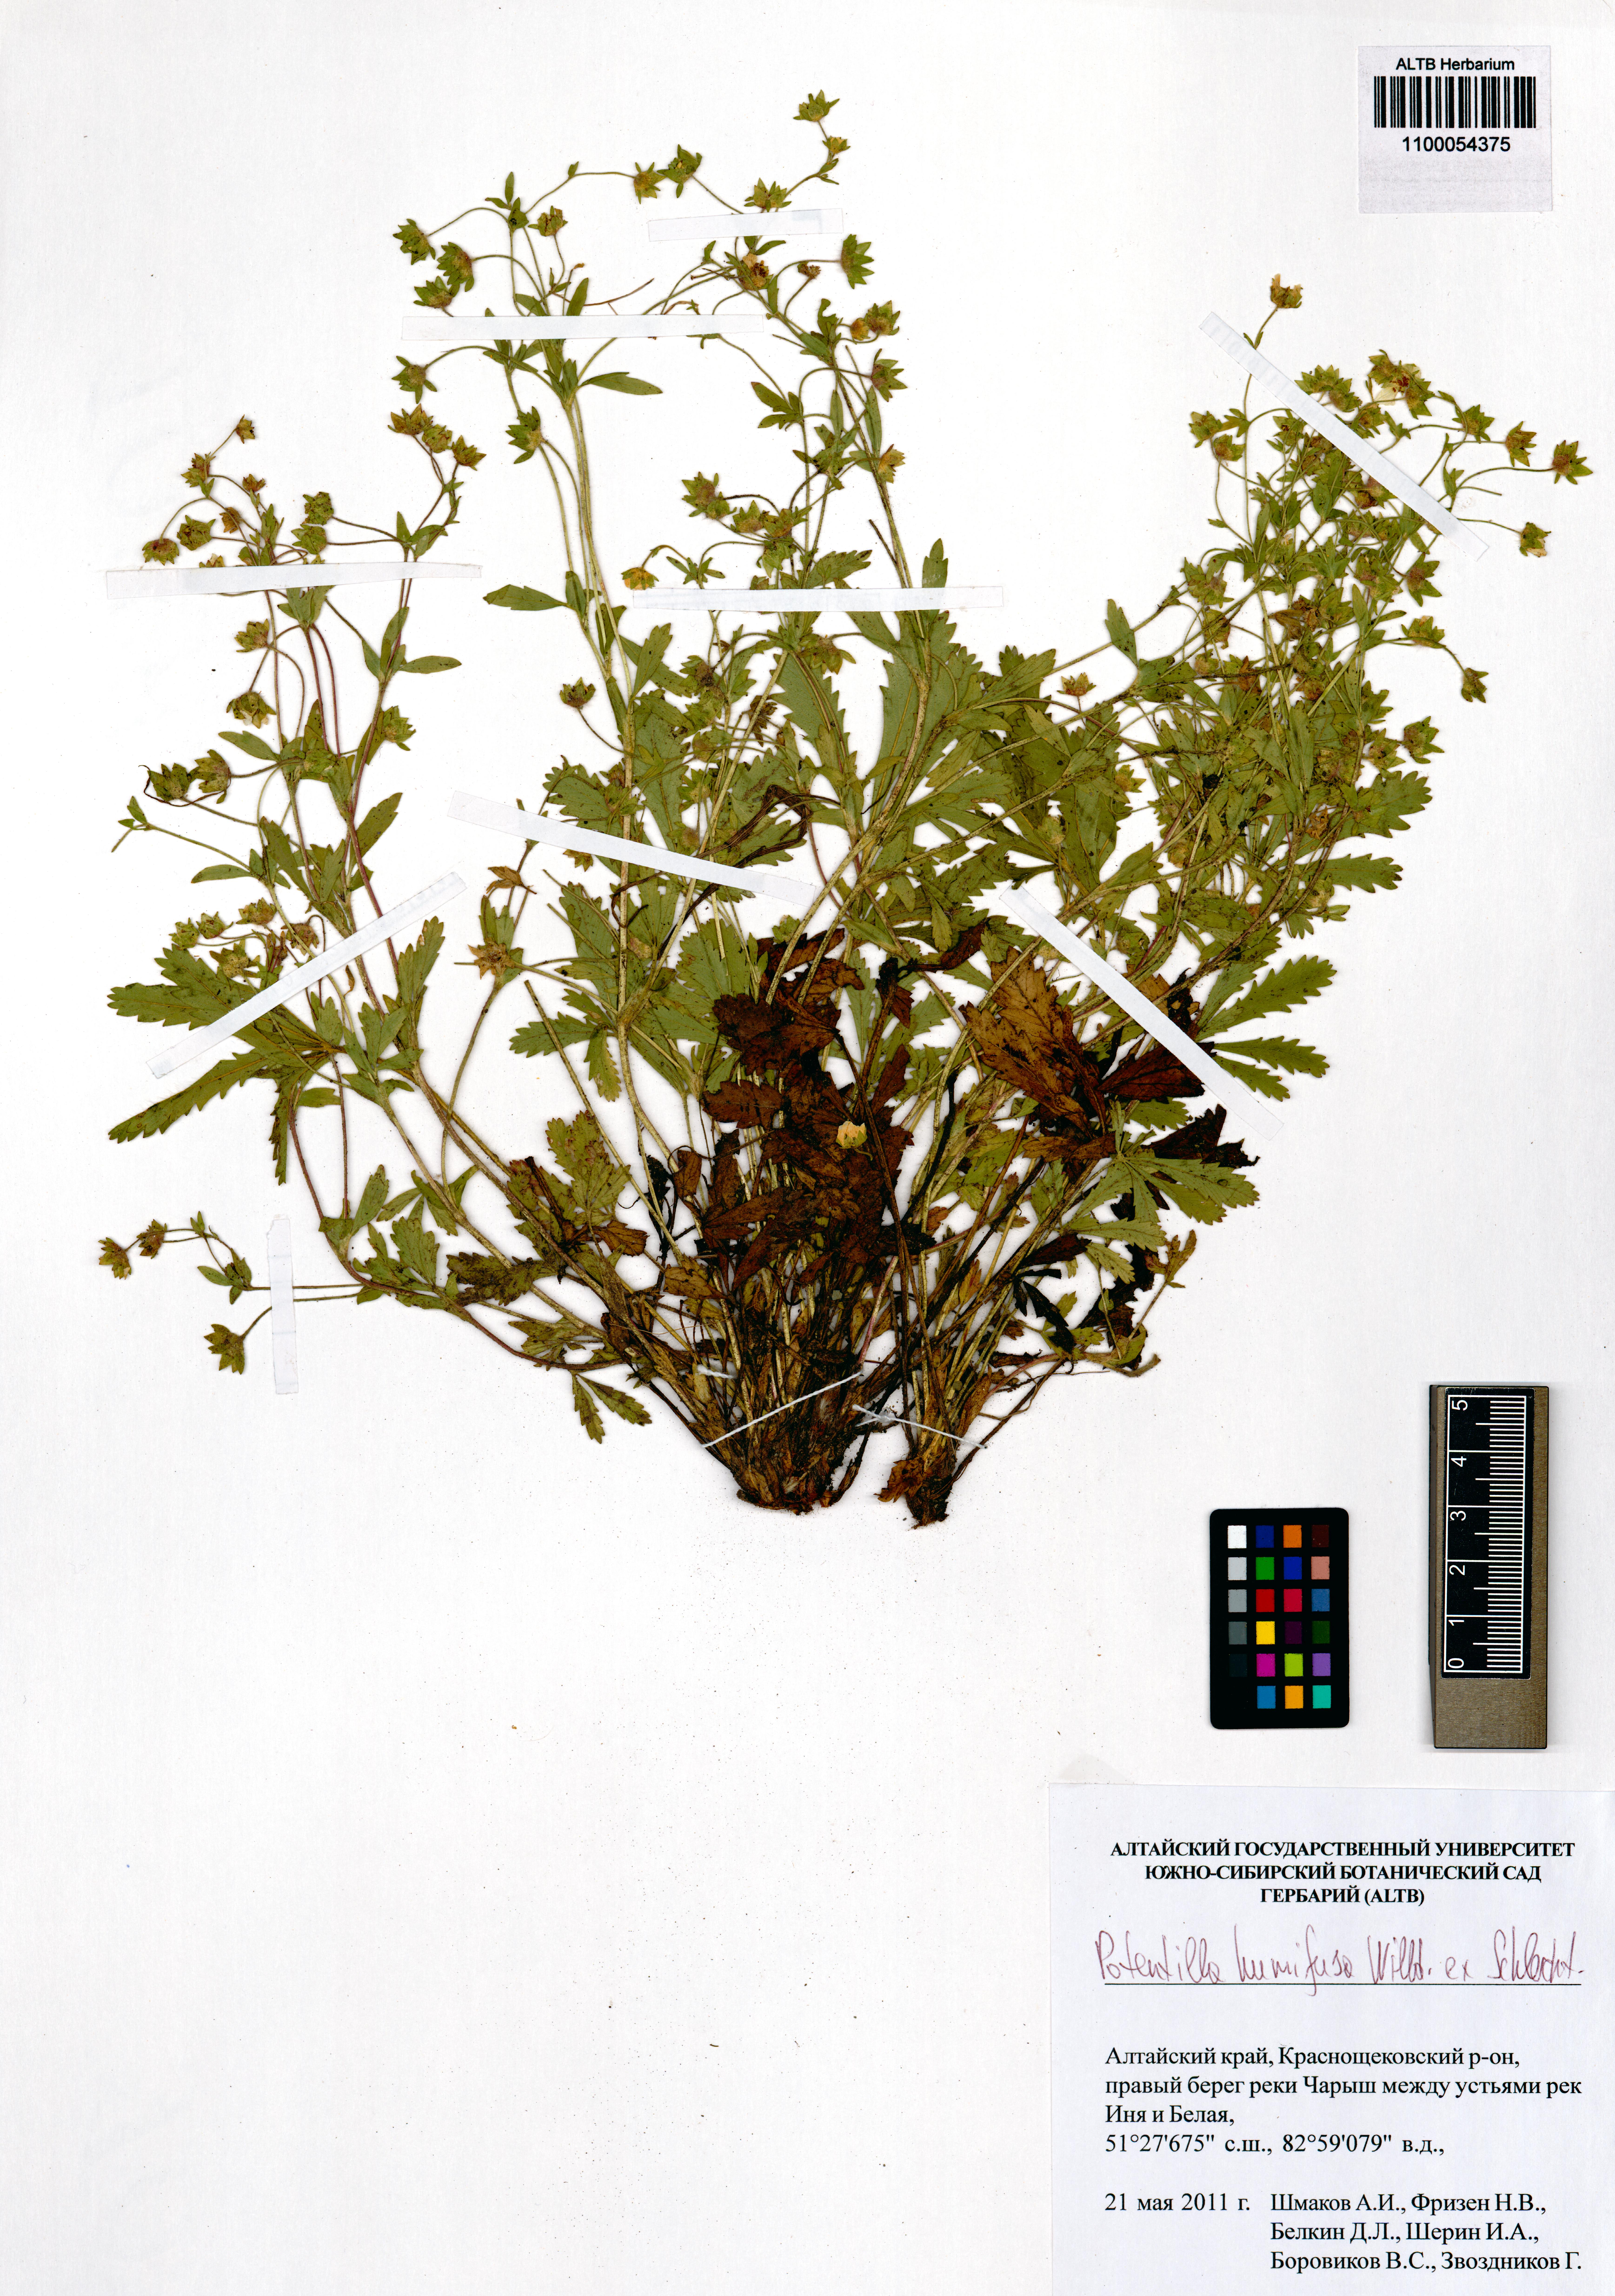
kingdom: Plantae
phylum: Tracheophyta
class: Magnoliopsida
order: Rosales
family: Rosaceae
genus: Potentilla
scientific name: Potentilla humifusa
